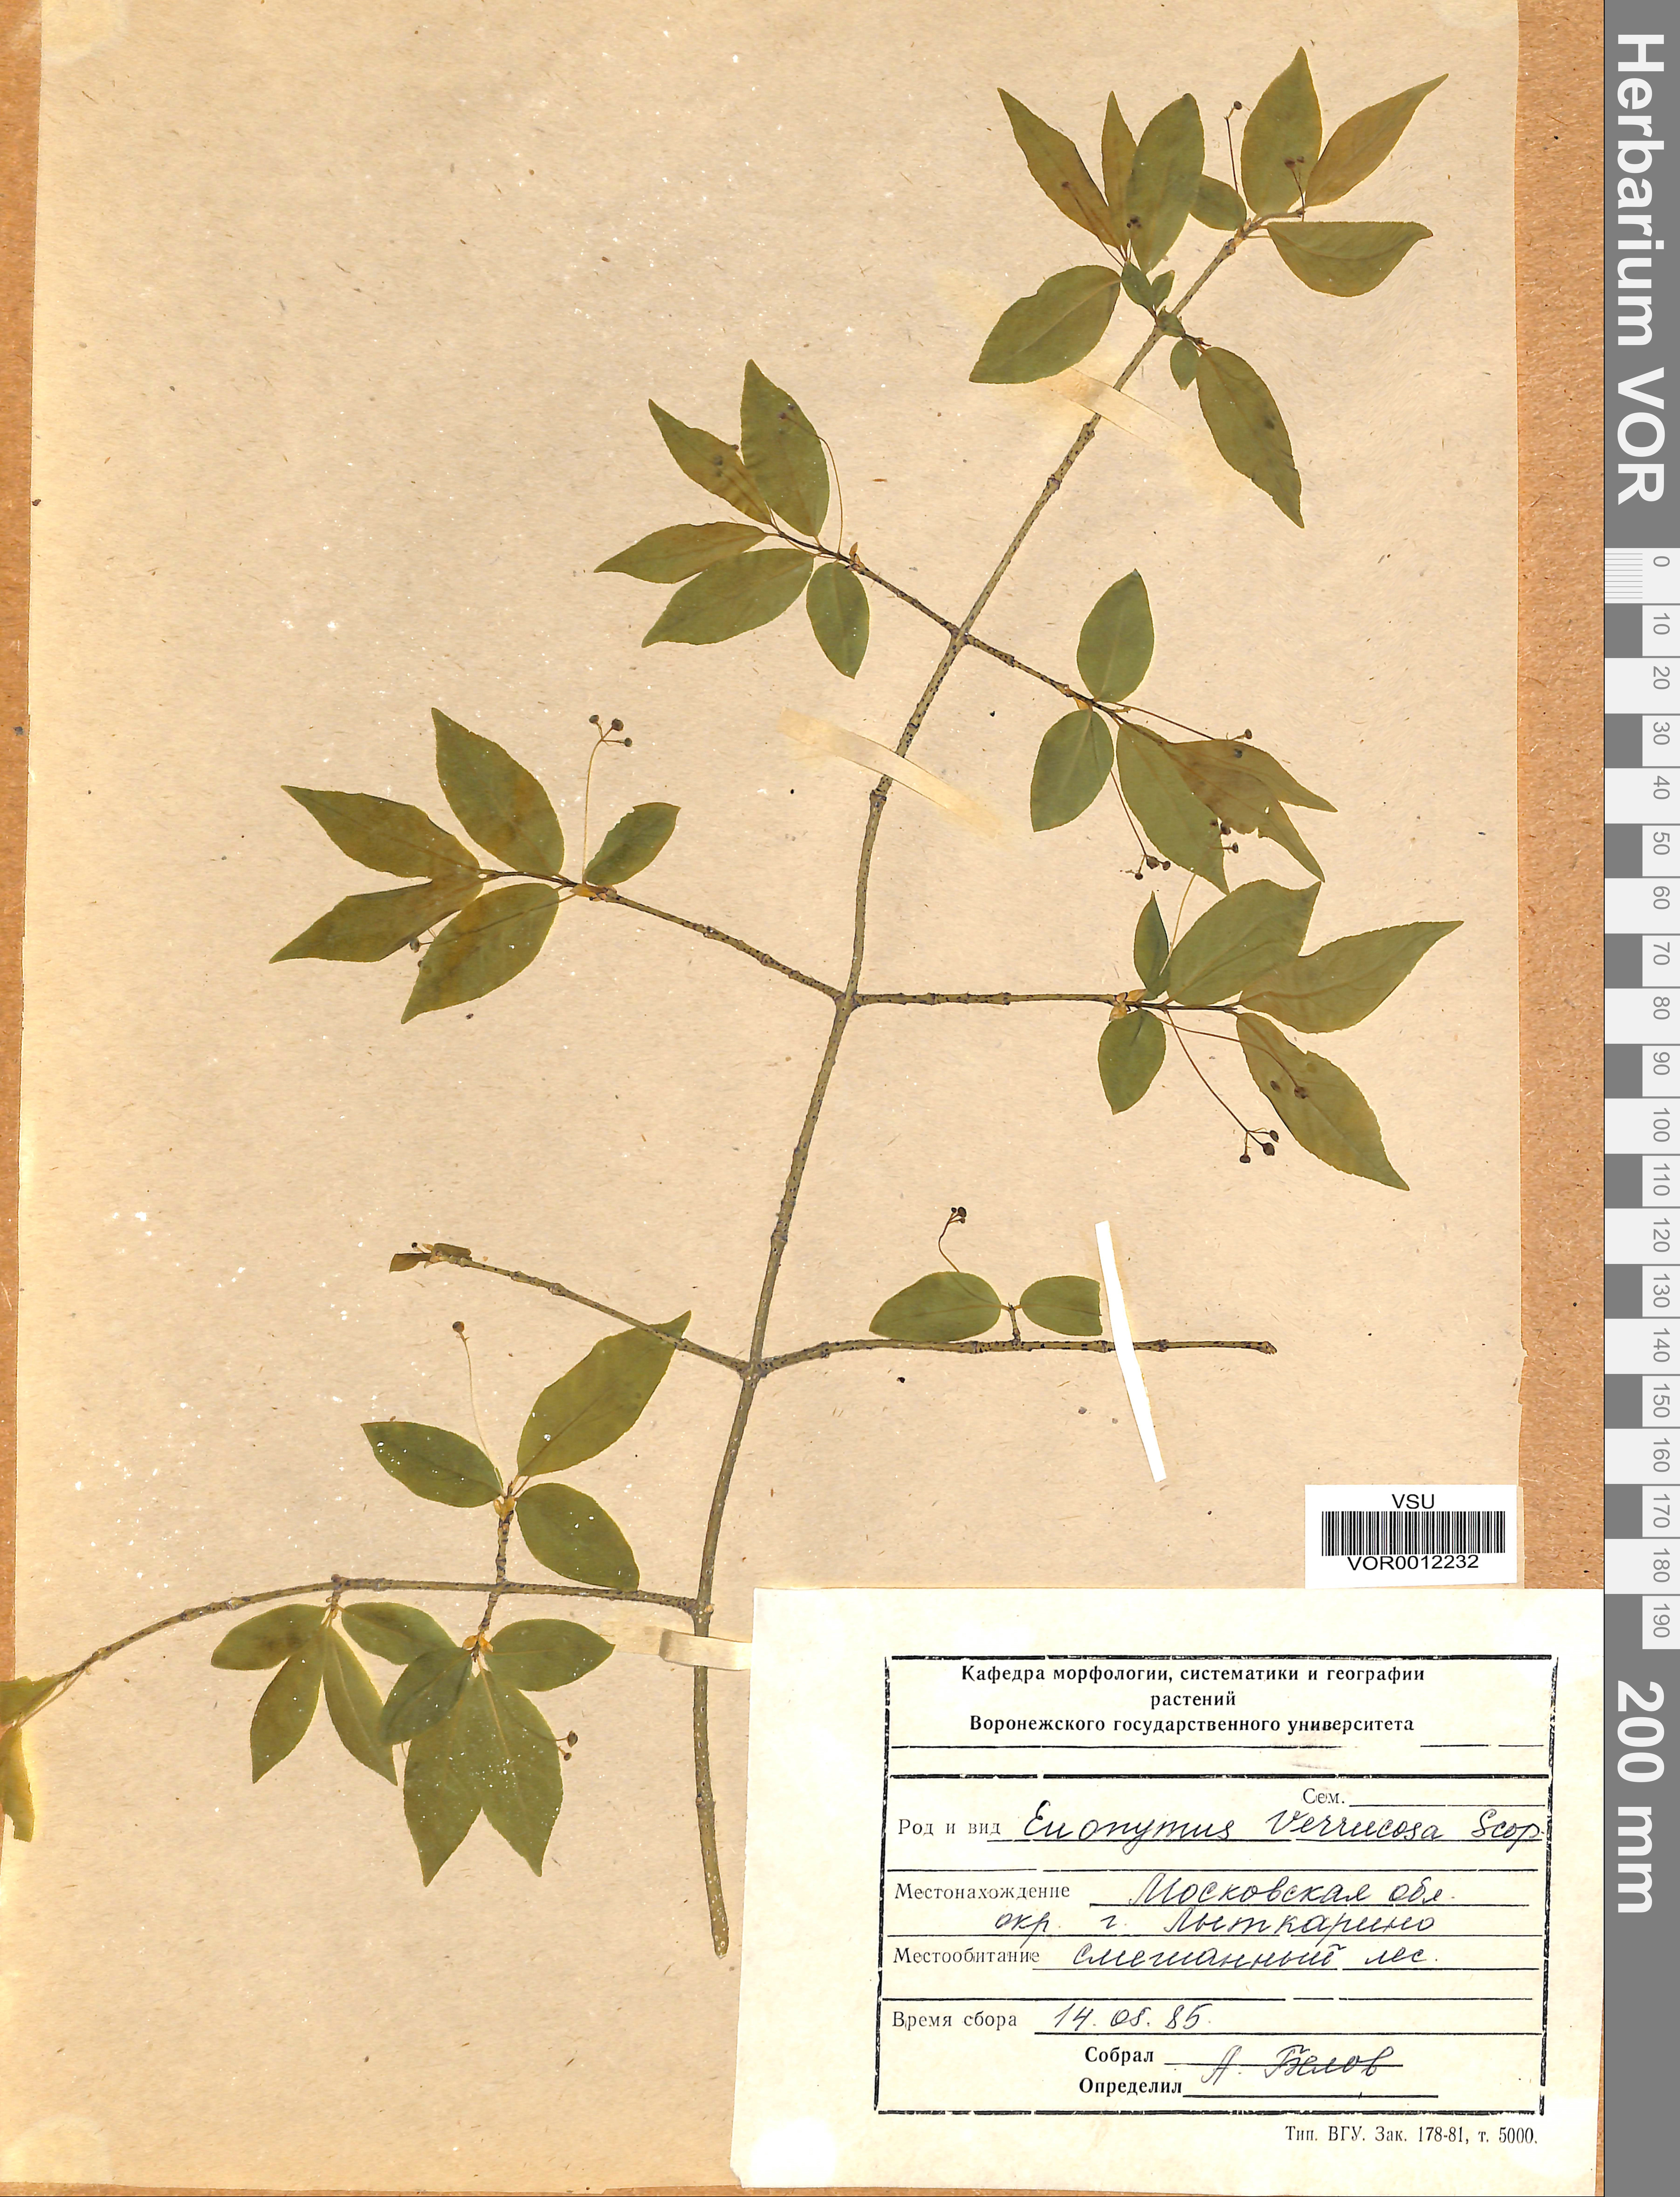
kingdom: Plantae
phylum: Tracheophyta
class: Magnoliopsida
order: Celastrales
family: Celastraceae
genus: Euonymus
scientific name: Euonymus verrucosus
